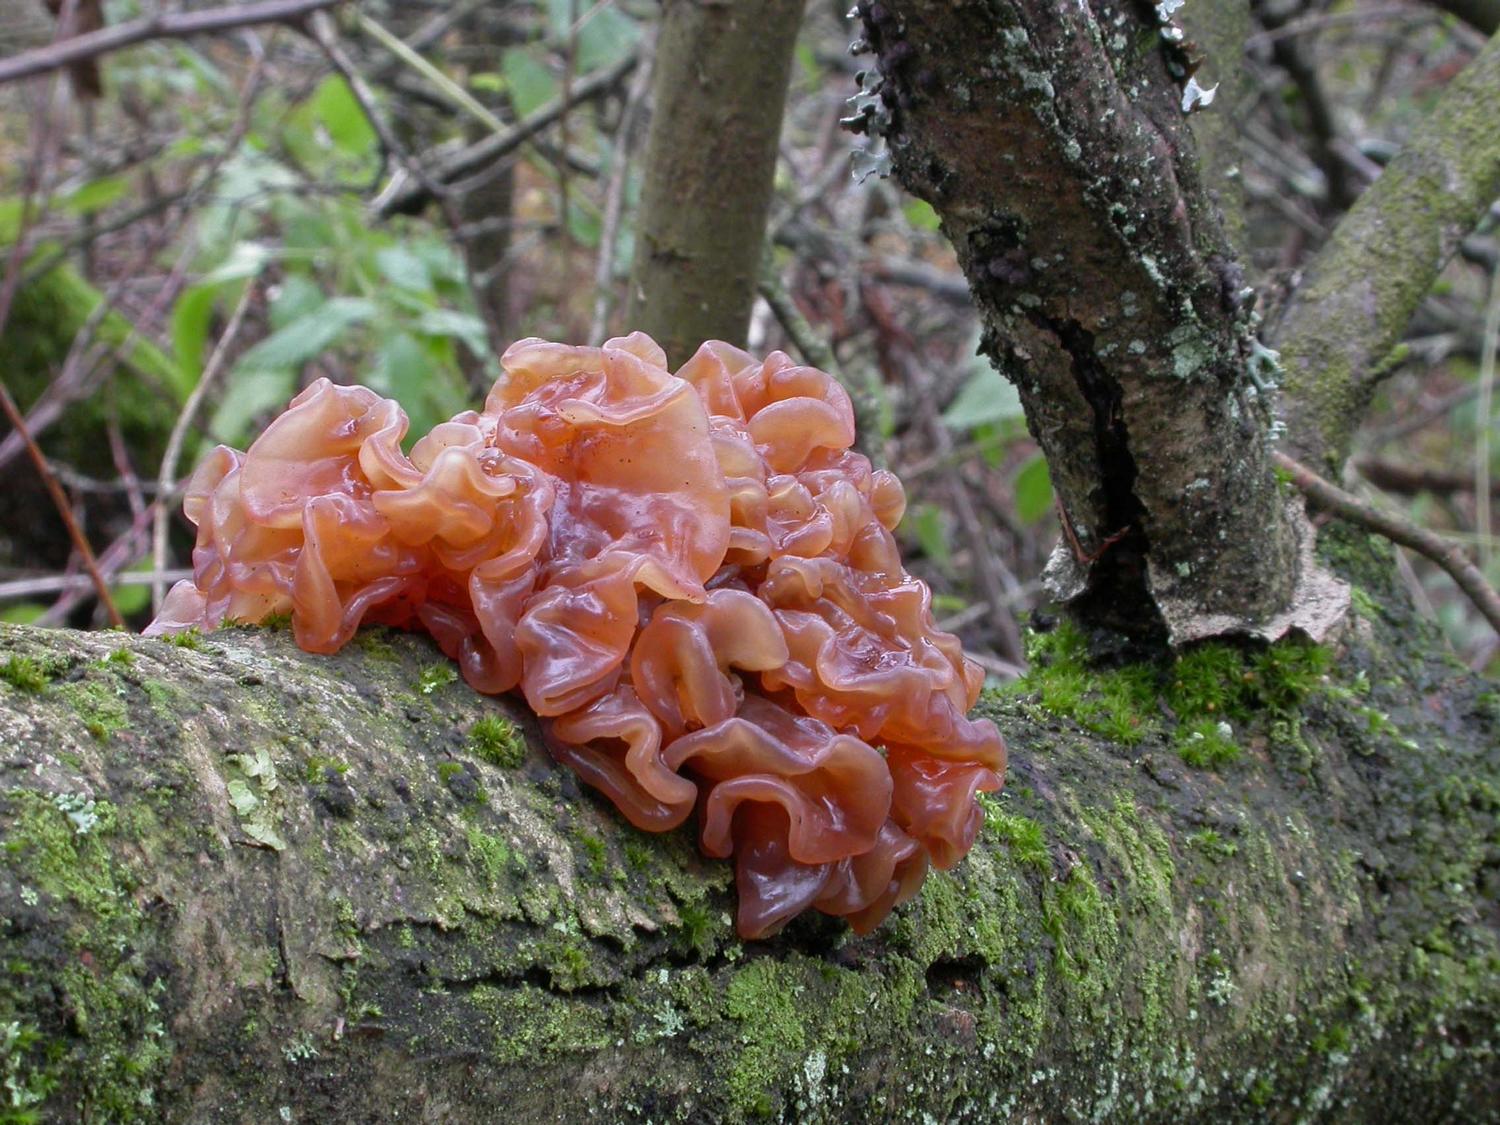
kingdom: Fungi
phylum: Basidiomycota
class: Tremellomycetes
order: Tremellales
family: Tremellaceae
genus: Phaeotremella
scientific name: Phaeotremella frondosa
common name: kæmpe-bævresvamp
